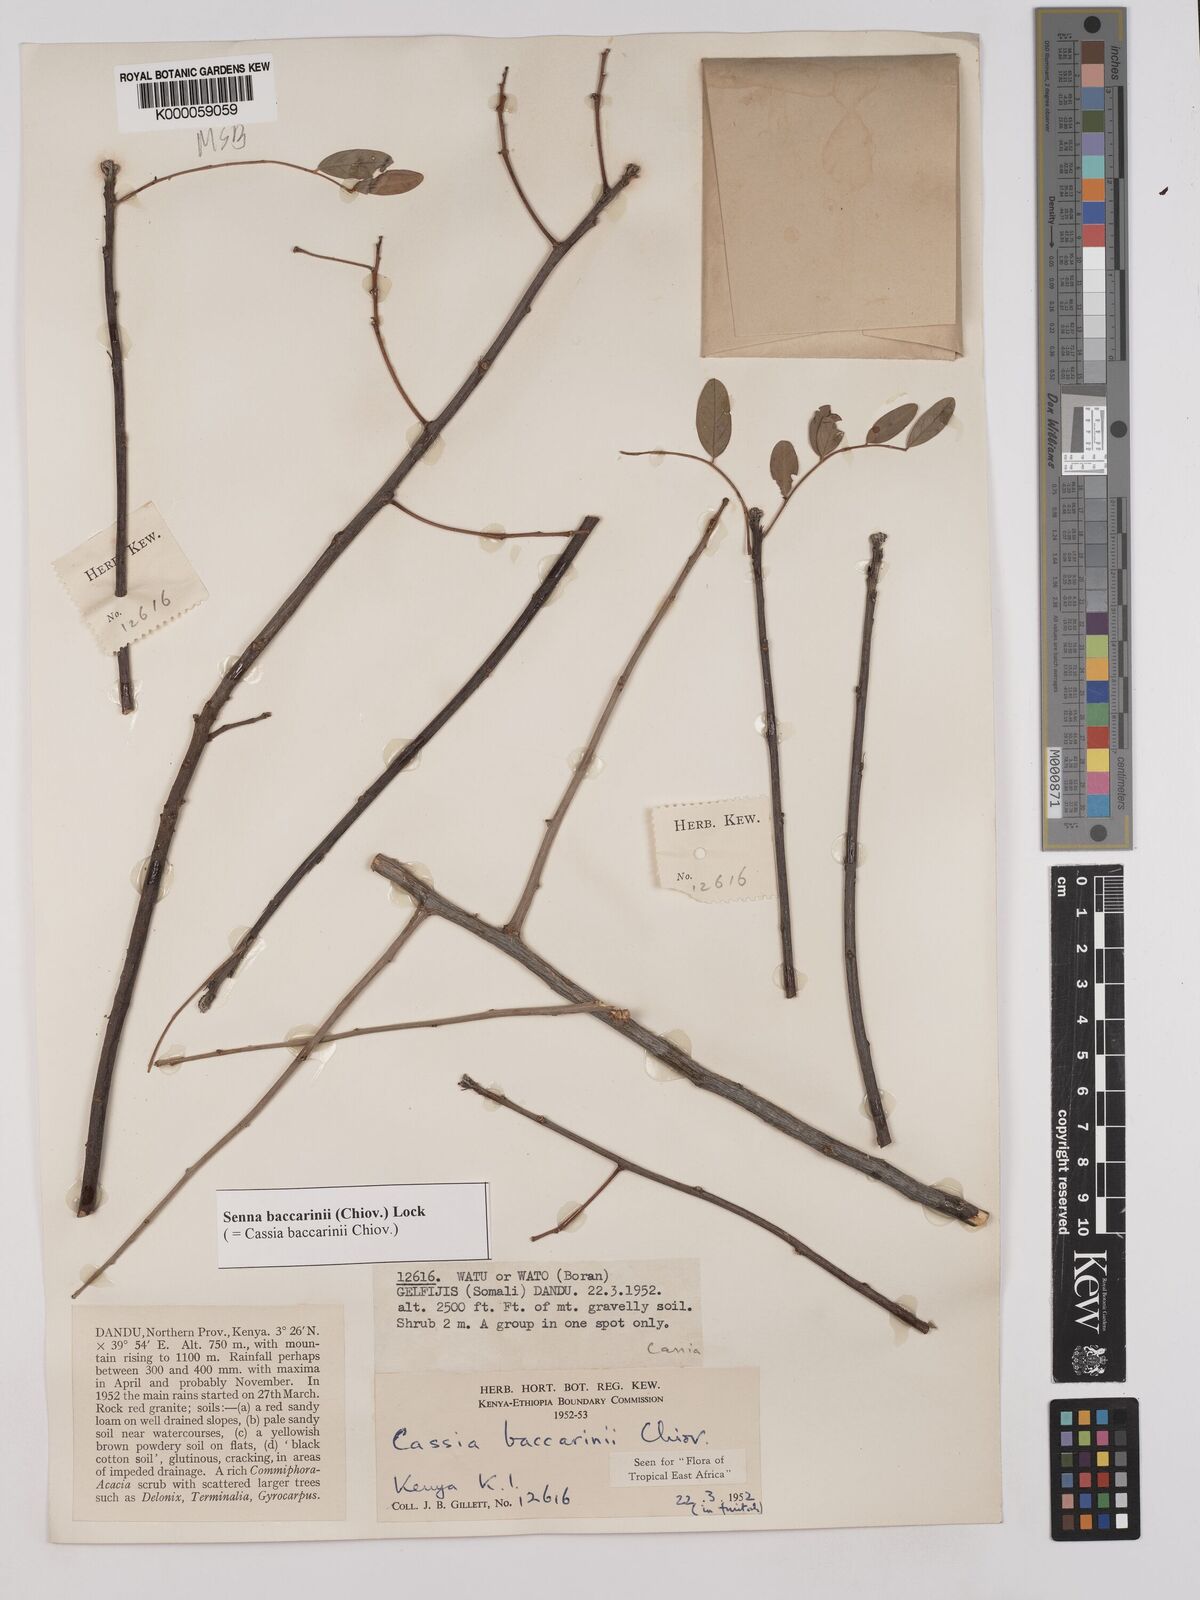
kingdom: Plantae
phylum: Tracheophyta
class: Magnoliopsida
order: Fabales
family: Fabaceae
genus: Senna
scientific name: Senna baccarinii
